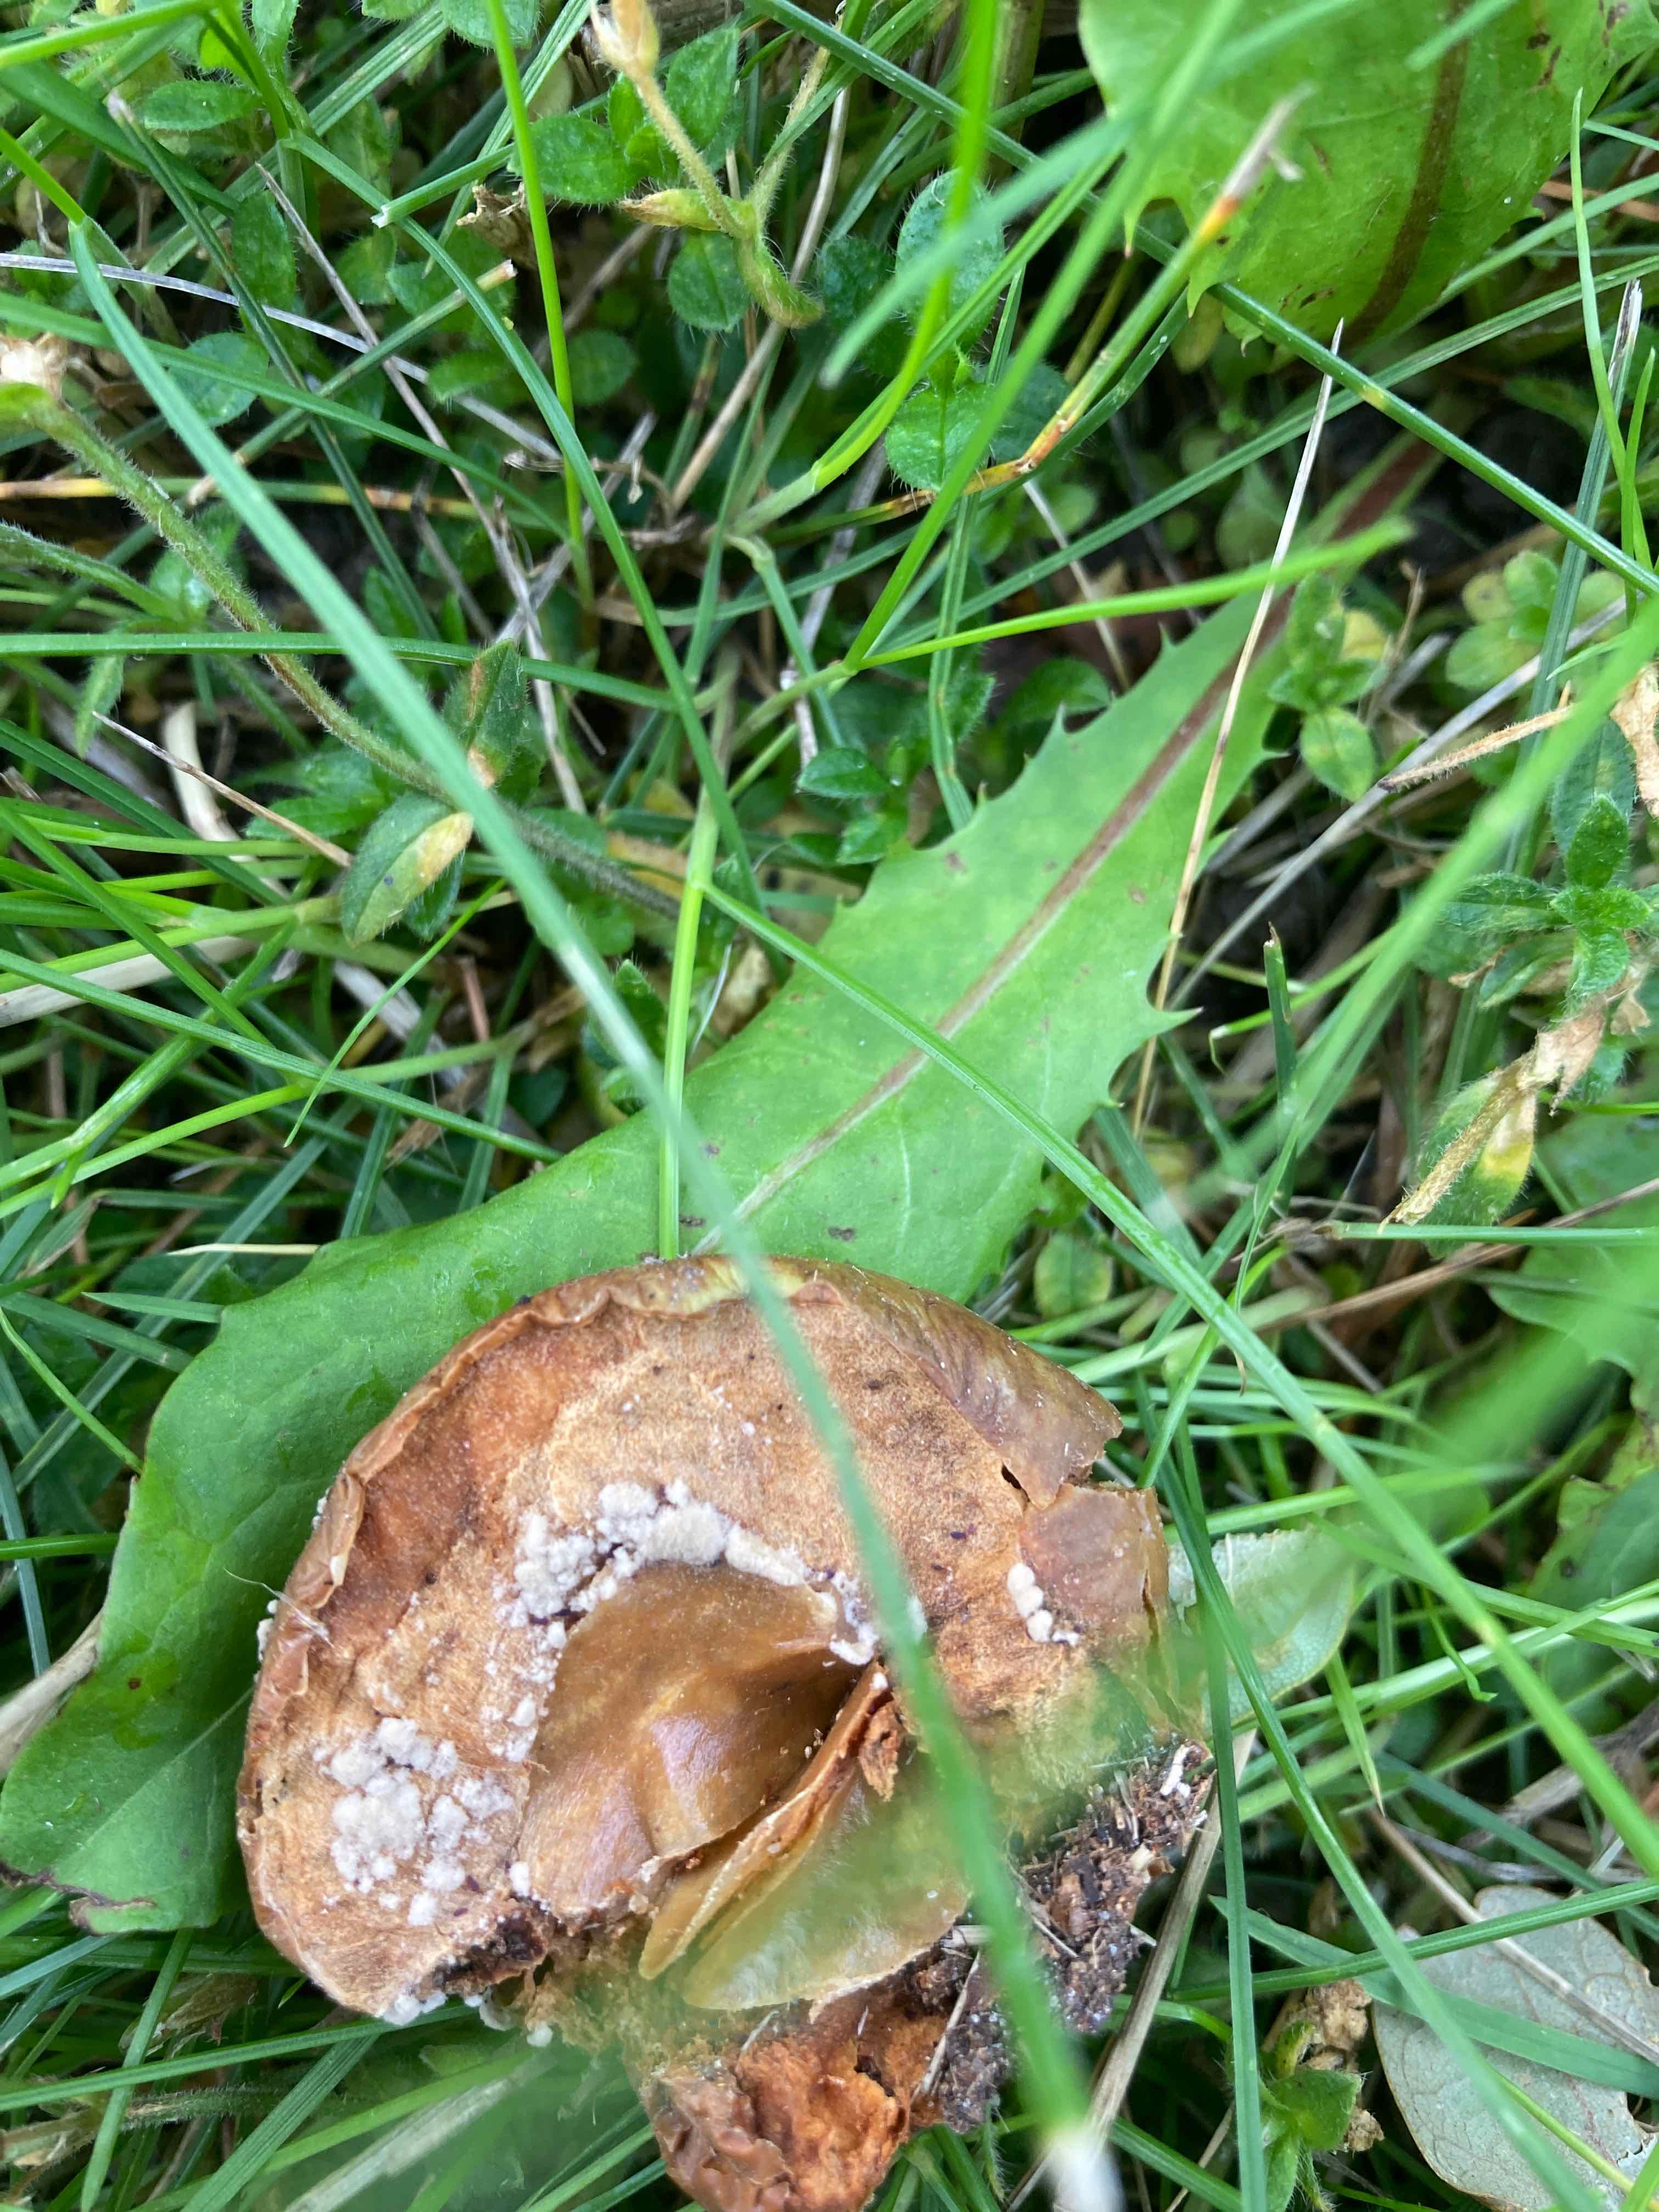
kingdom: Fungi
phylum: Ascomycota
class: Leotiomycetes
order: Helotiales
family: Sclerotiniaceae
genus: Monilinia
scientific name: Monilinia fructigena
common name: æble-knoldskive
